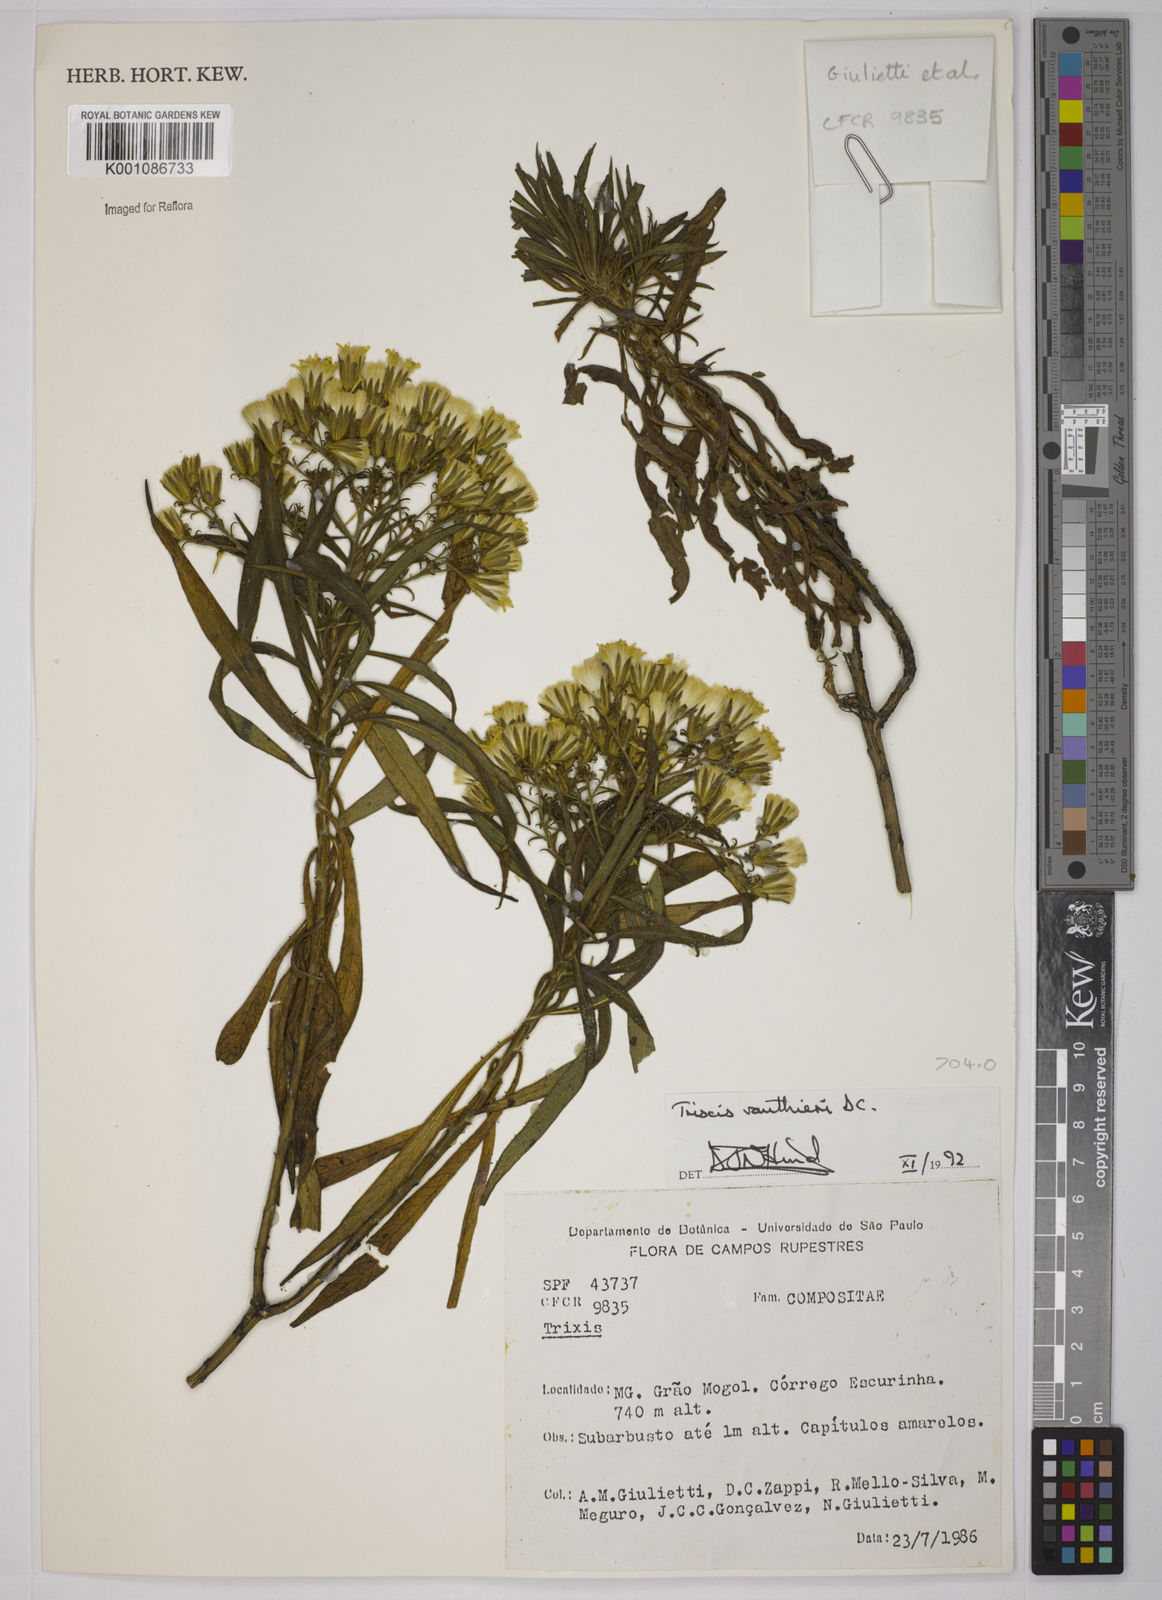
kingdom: Plantae
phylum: Tracheophyta
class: Magnoliopsida
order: Asterales
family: Asteraceae
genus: Trixis
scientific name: Trixis vauthieri
